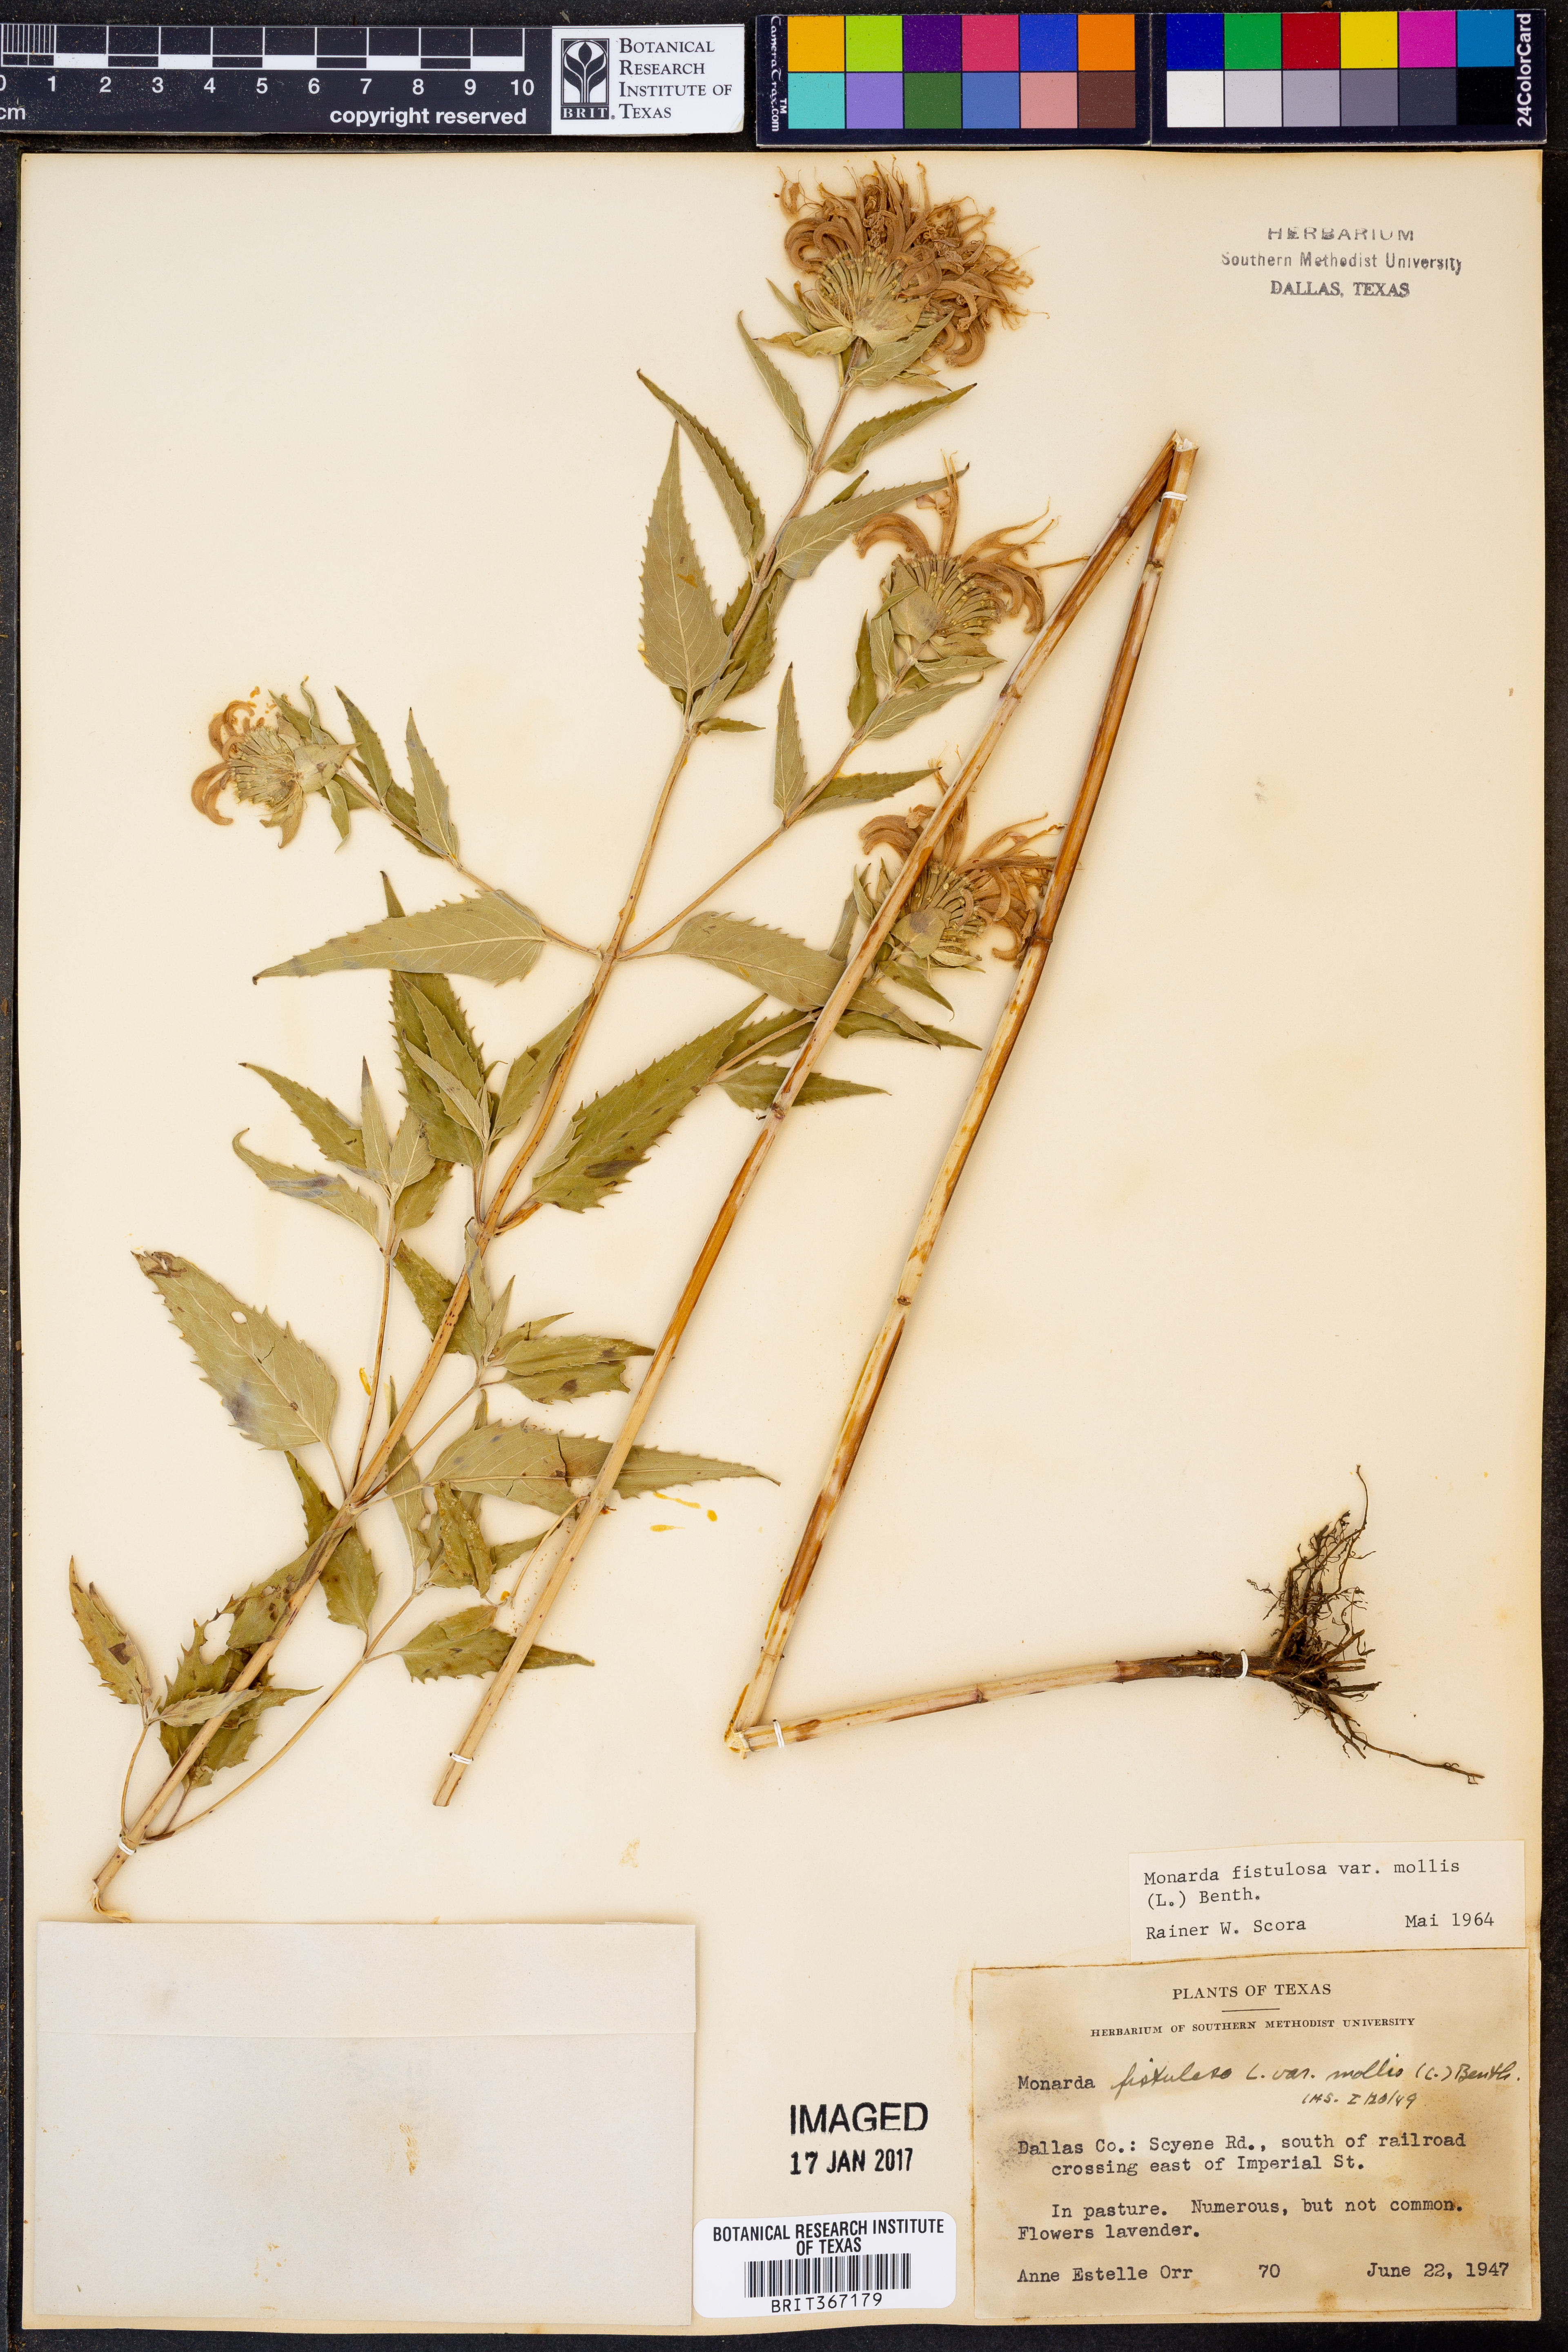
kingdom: Plantae
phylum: Tracheophyta
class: Magnoliopsida
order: Lamiales
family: Lamiaceae
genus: Monarda
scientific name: Monarda fistulosa
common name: Purple beebalm
